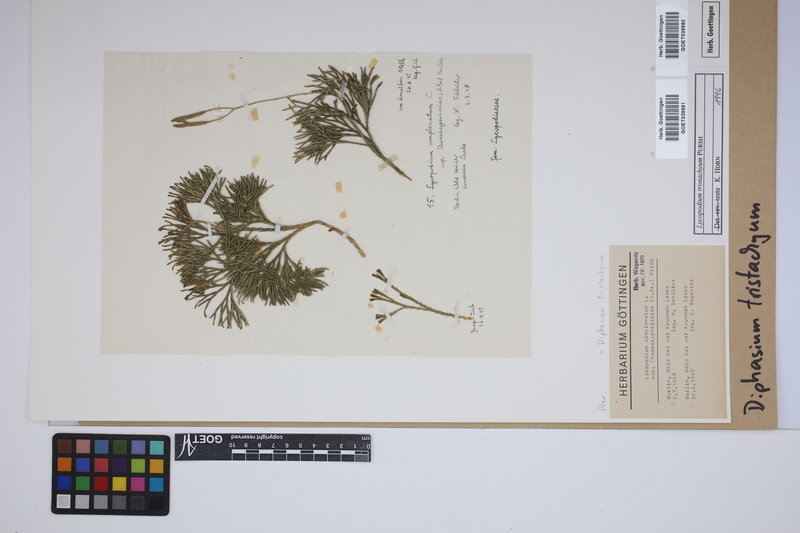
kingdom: Plantae
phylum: Tracheophyta
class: Lycopodiopsida
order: Lycopodiales
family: Lycopodiaceae
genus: Diphasiastrum
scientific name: Diphasiastrum tristachyum
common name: Blue ground-cedar
